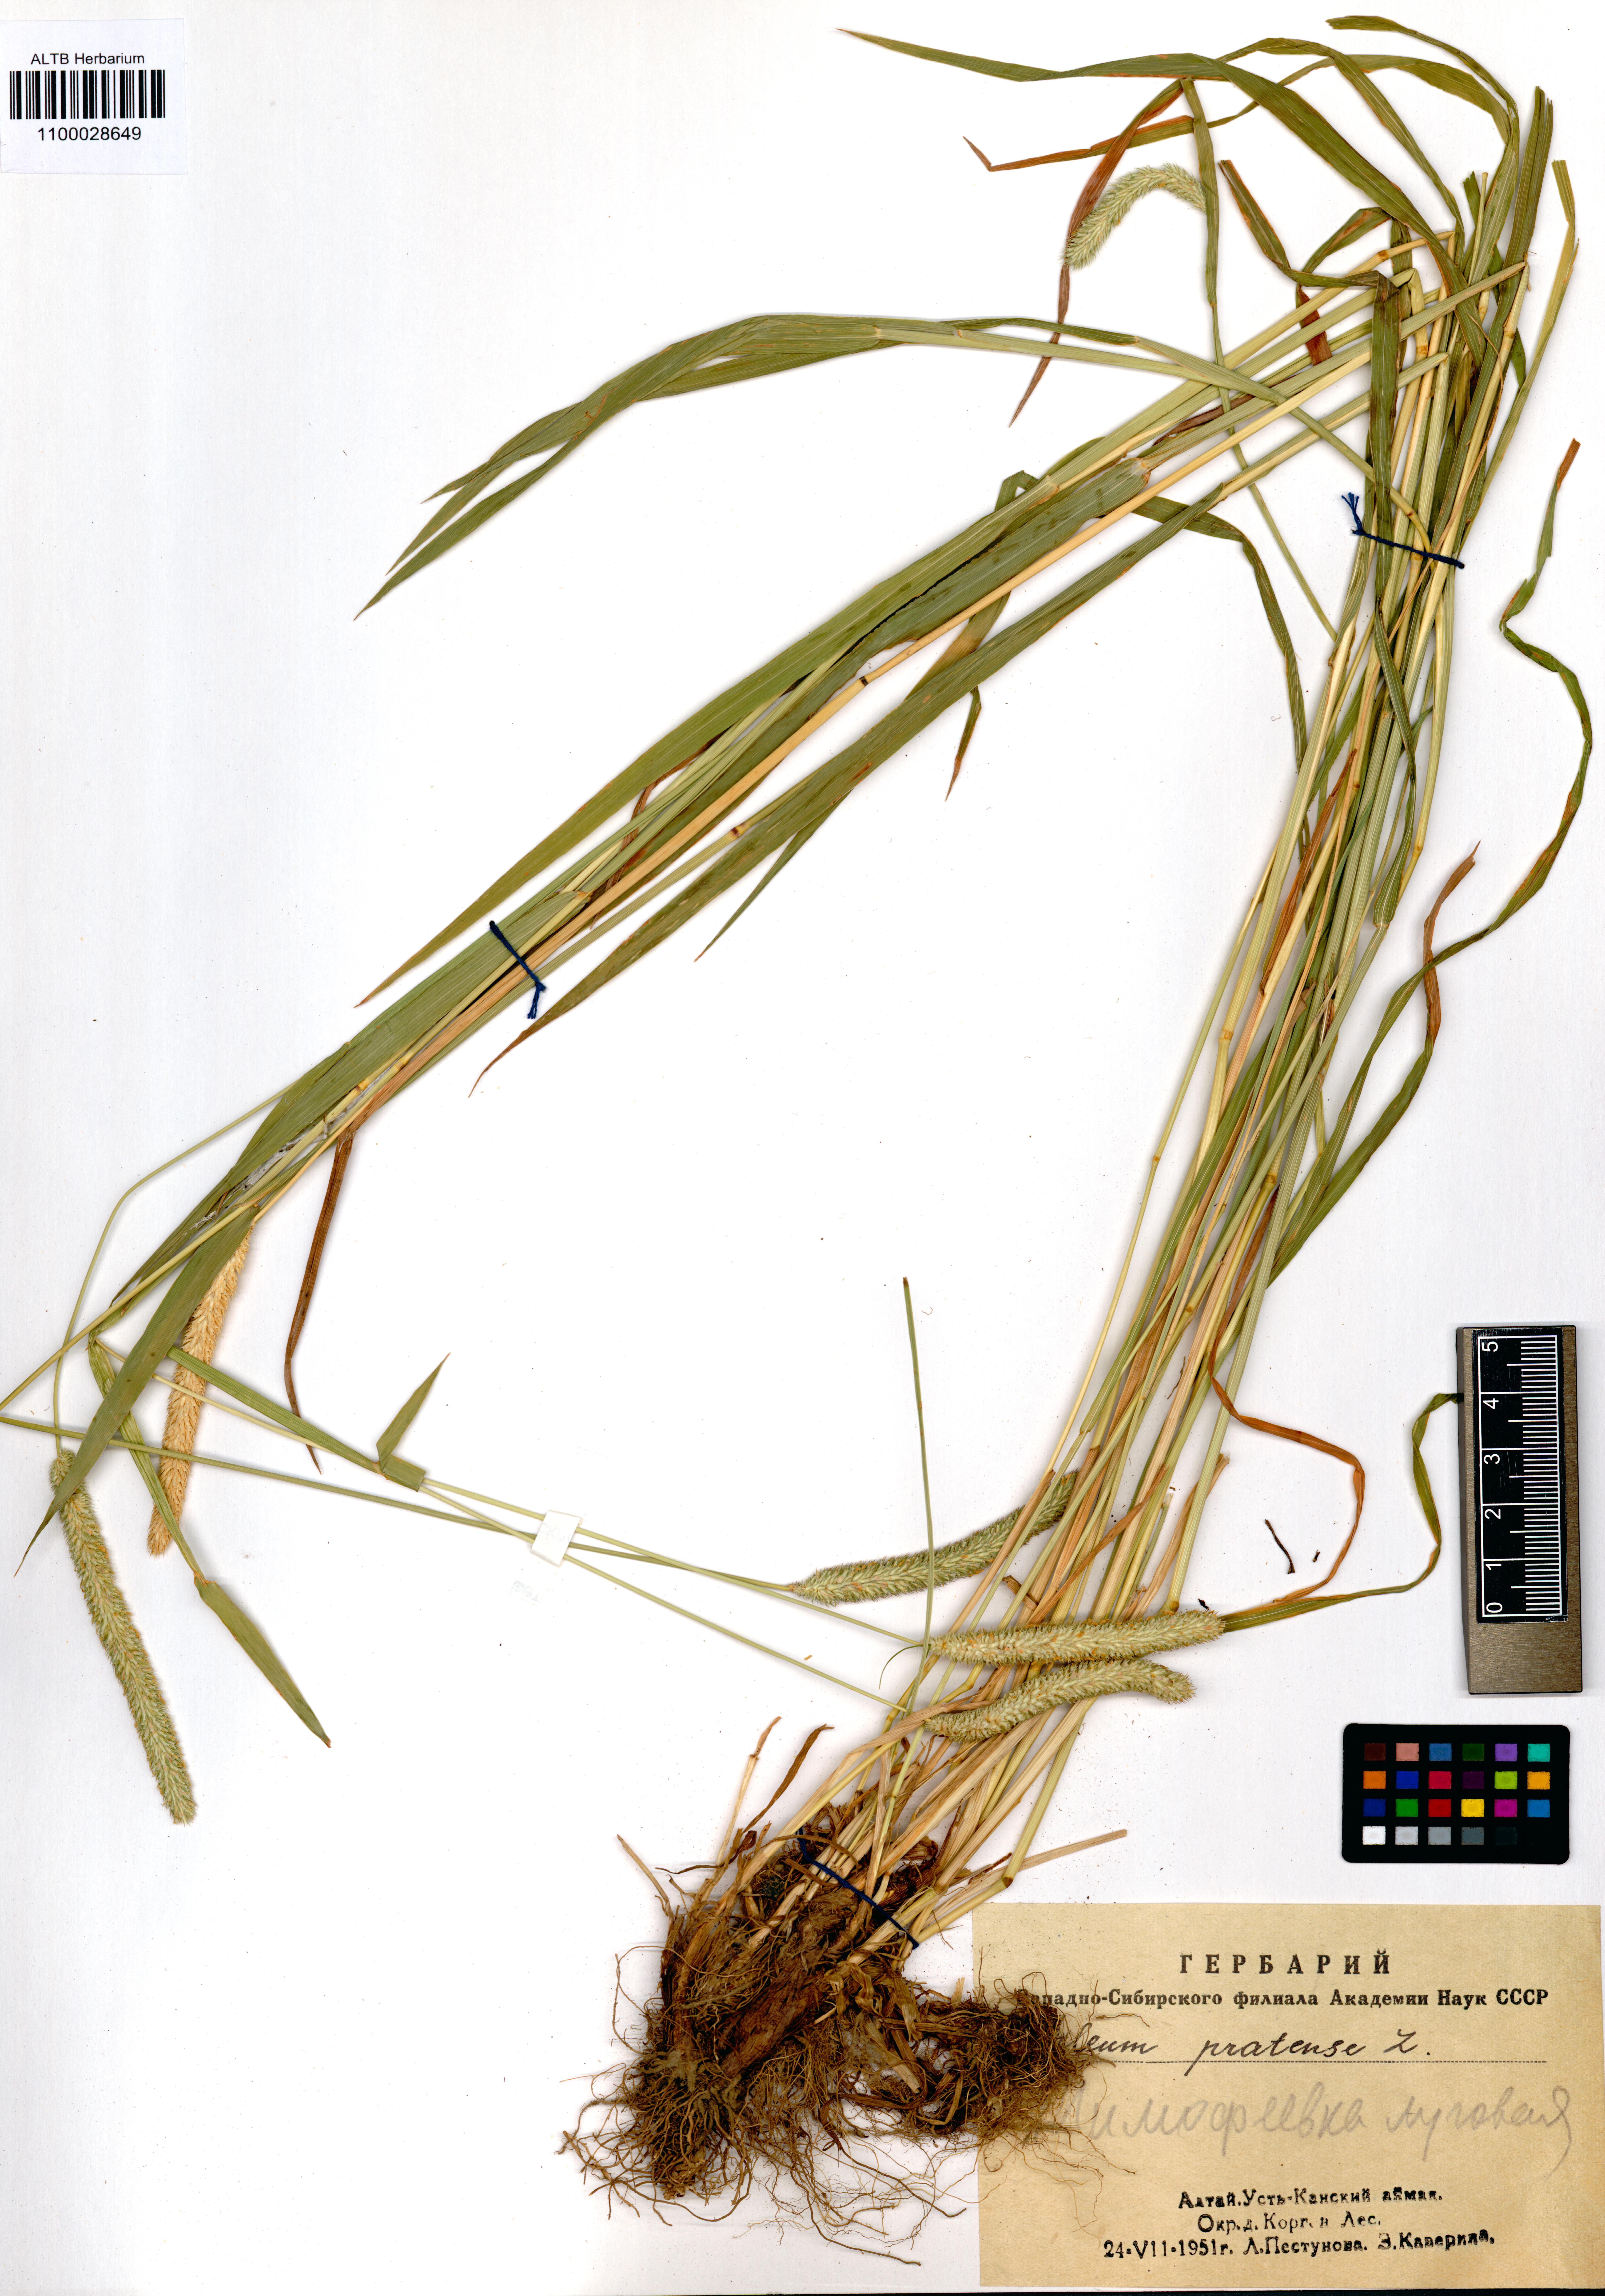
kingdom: Plantae
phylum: Tracheophyta
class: Liliopsida
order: Poales
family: Poaceae
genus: Phleum
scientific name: Phleum pratense
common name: Timothy grass
